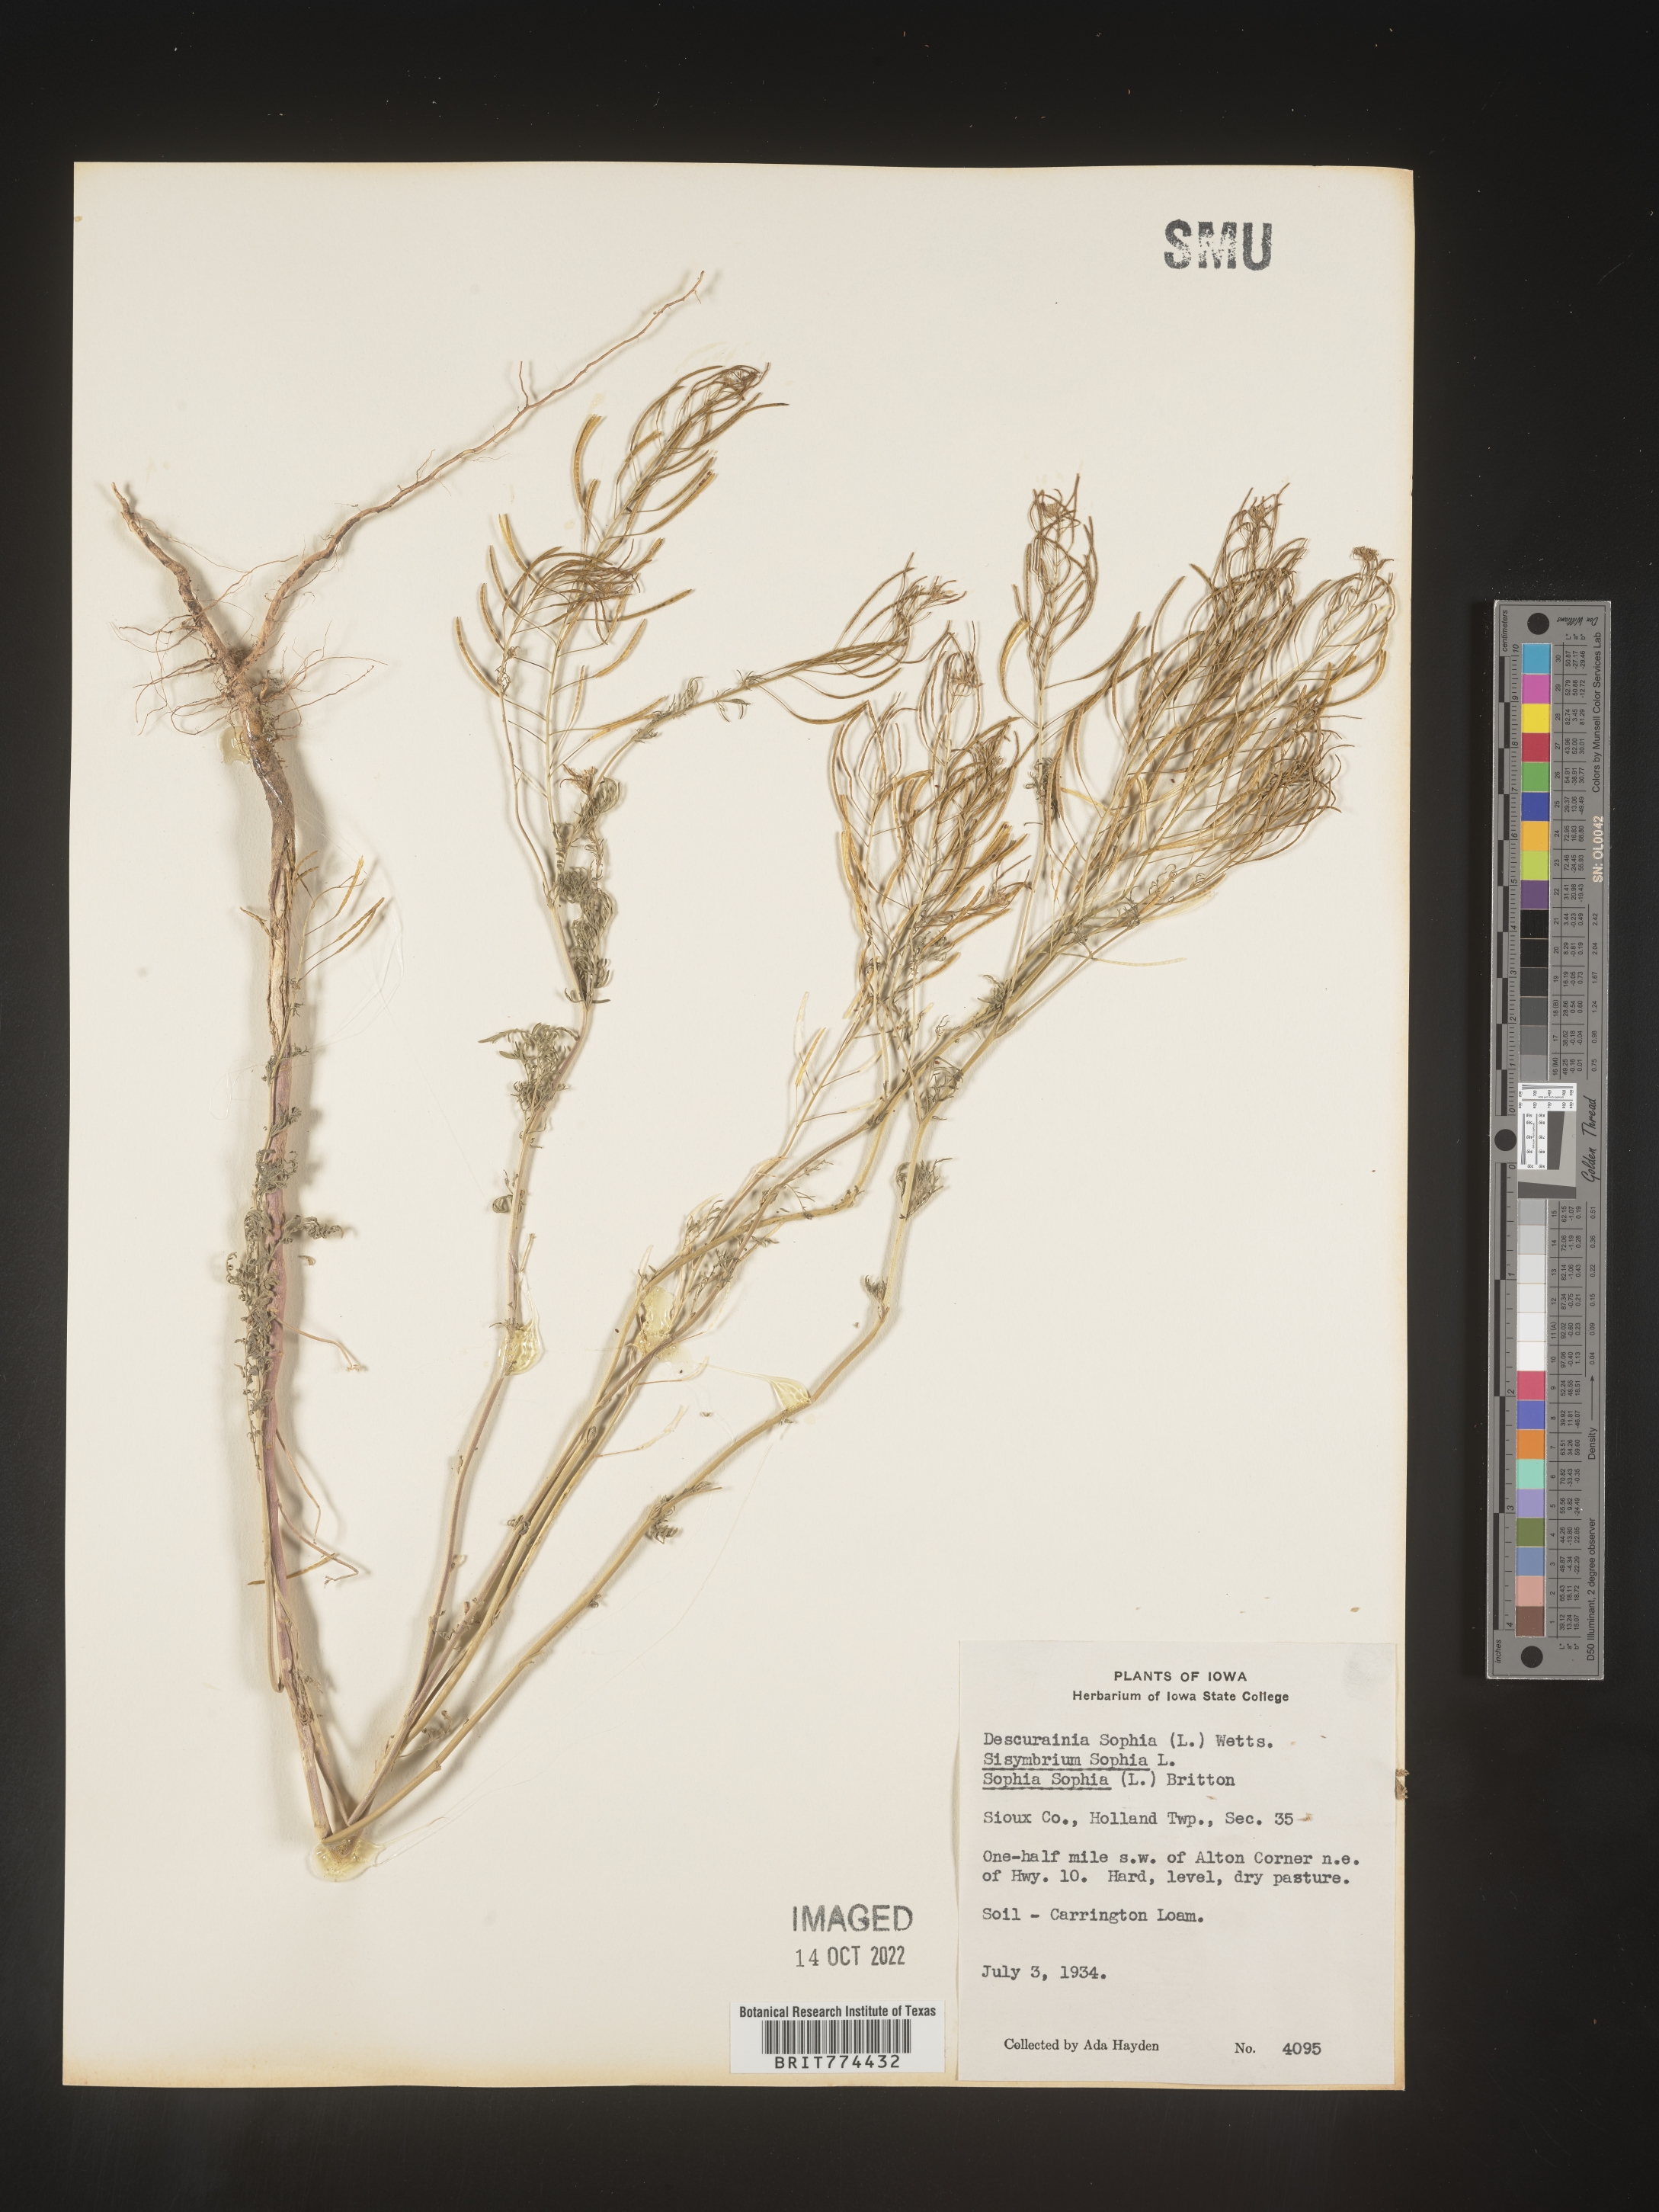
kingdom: Plantae
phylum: Tracheophyta
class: Magnoliopsida
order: Brassicales
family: Brassicaceae
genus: Descurainia
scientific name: Descurainia sophia
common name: Flixweed
